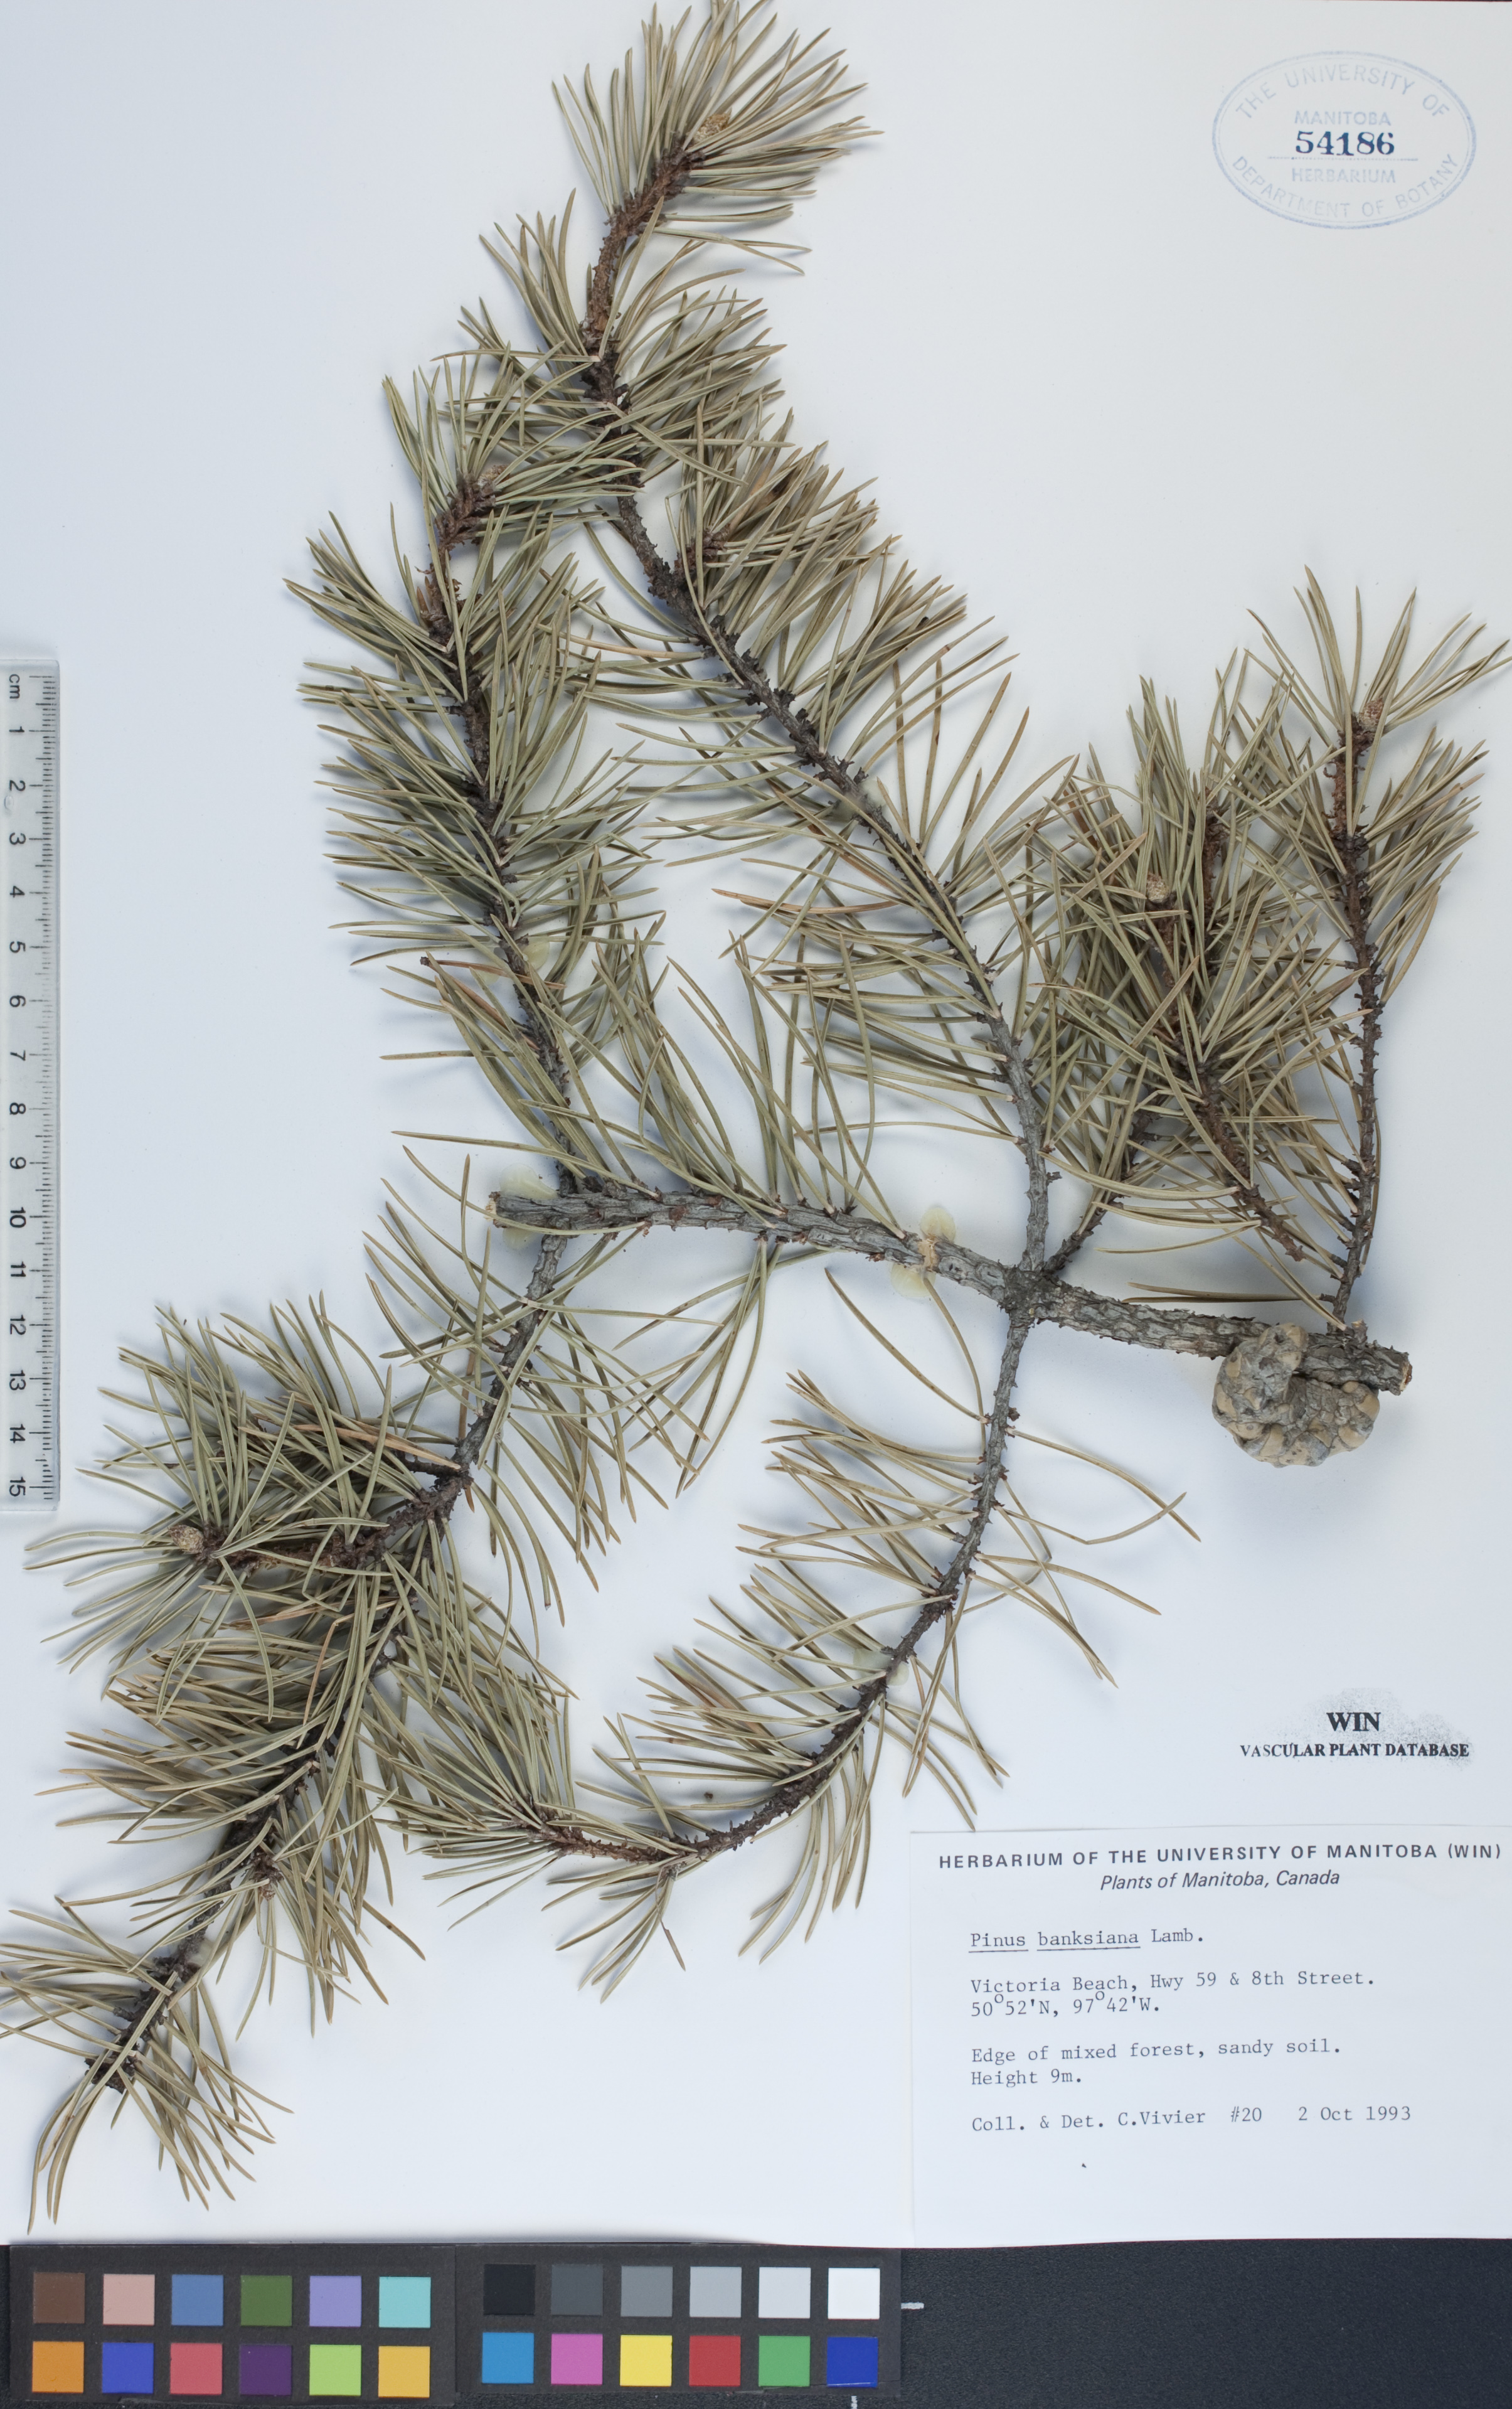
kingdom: Plantae
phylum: Tracheophyta
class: Pinopsida
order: Pinales
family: Pinaceae
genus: Pinus
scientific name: Pinus banksiana
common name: Jack pine
